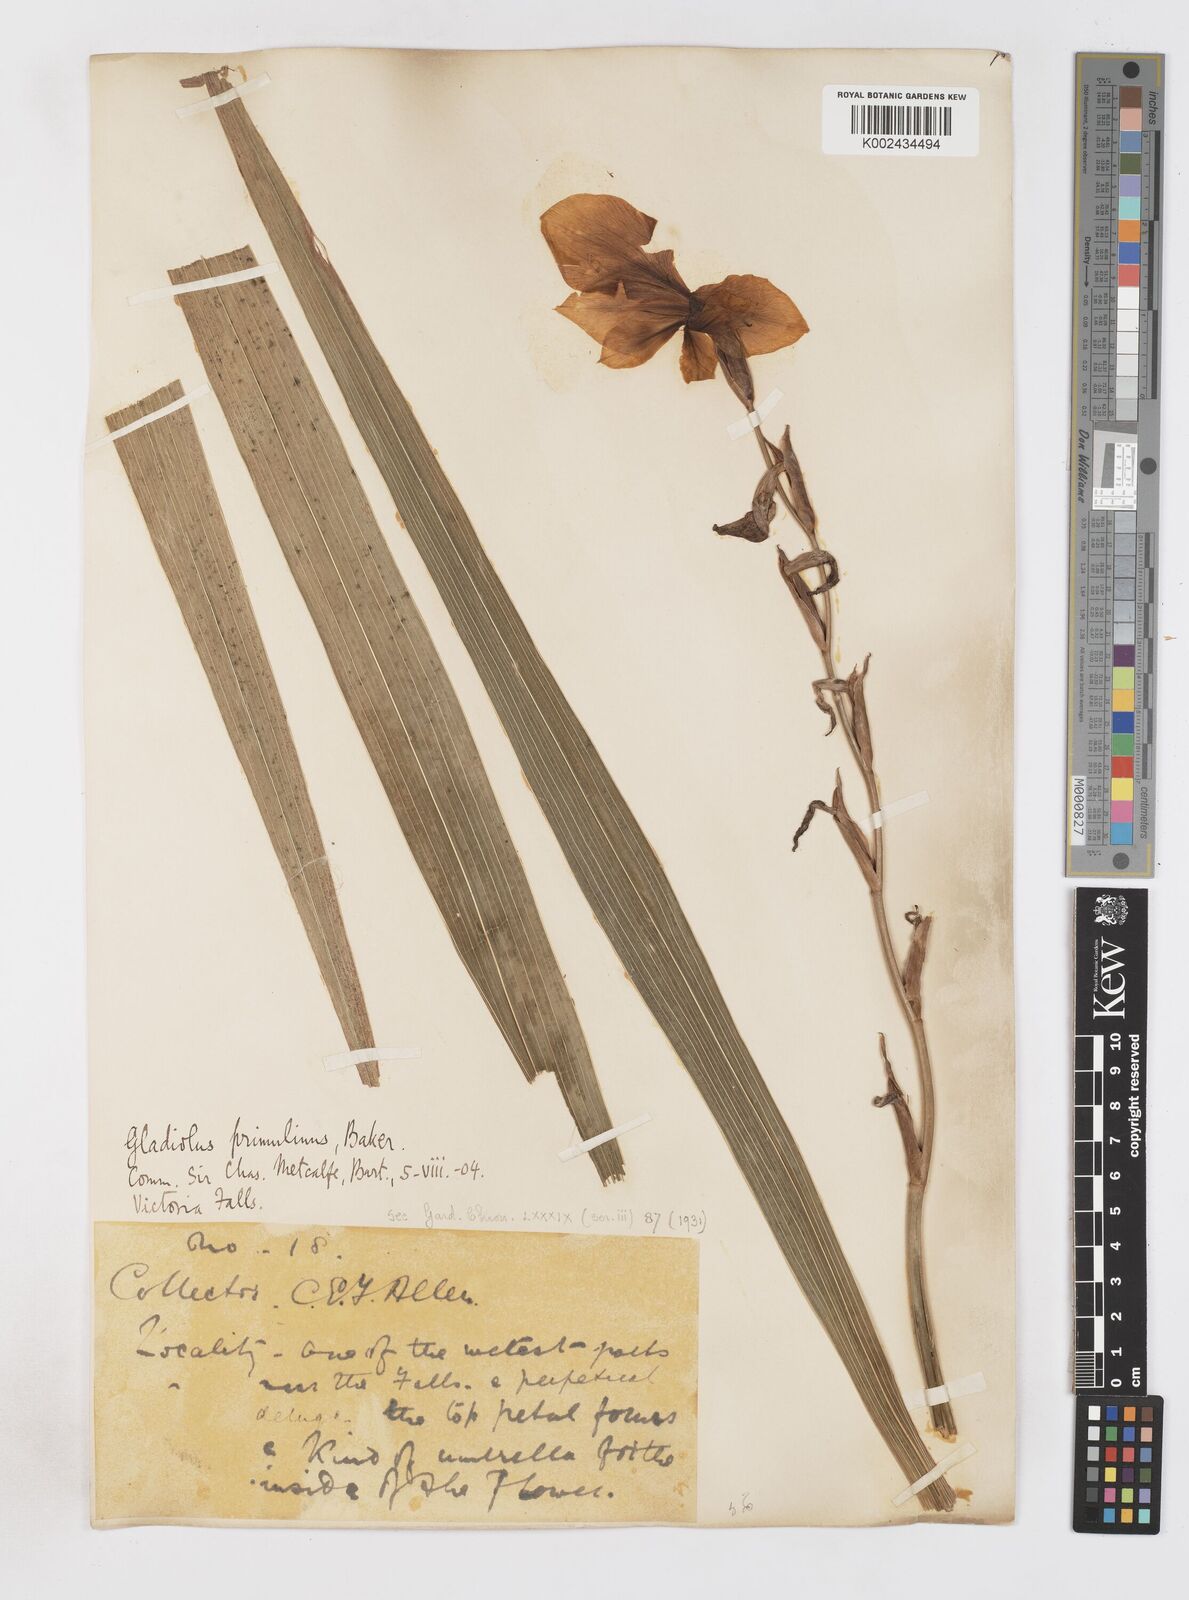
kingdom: Plantae
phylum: Tracheophyta
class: Liliopsida
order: Asparagales
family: Iridaceae
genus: Gladiolus
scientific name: Gladiolus dalenii
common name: Cornflag
